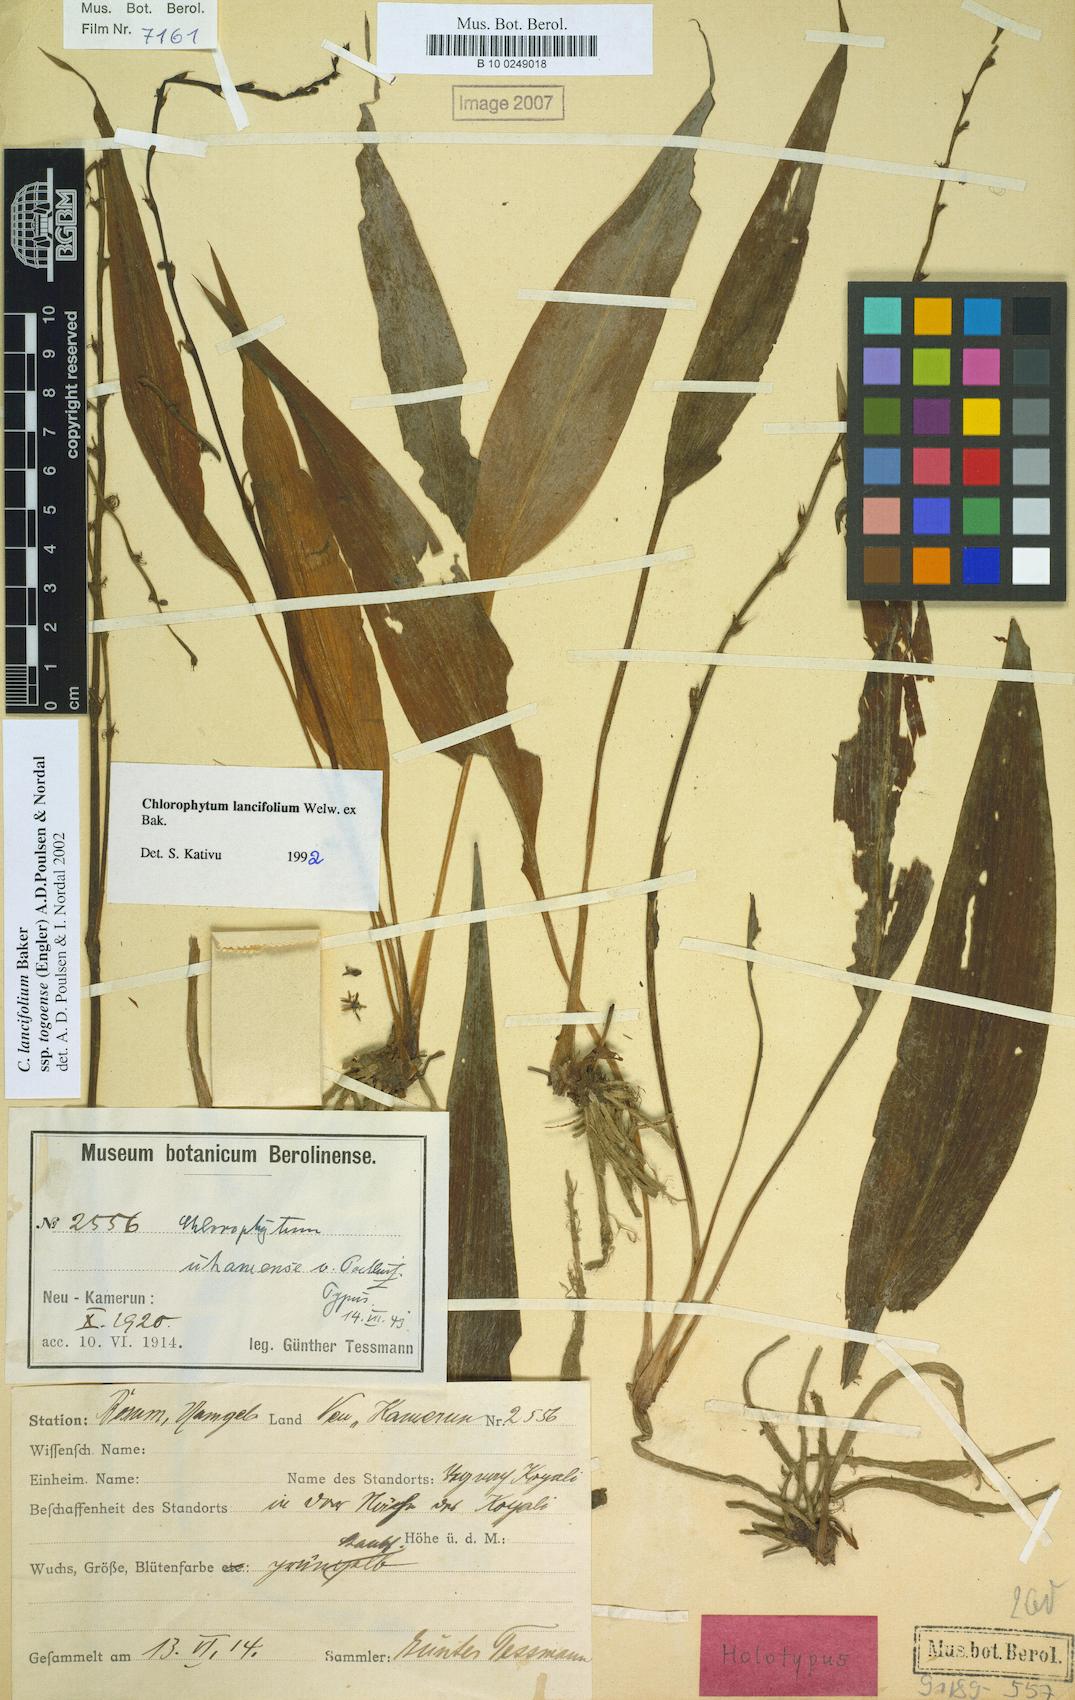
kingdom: Plantae
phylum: Tracheophyta
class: Liliopsida
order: Asparagales
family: Asparagaceae
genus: Chlorophytum
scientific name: Chlorophytum lancifolium
